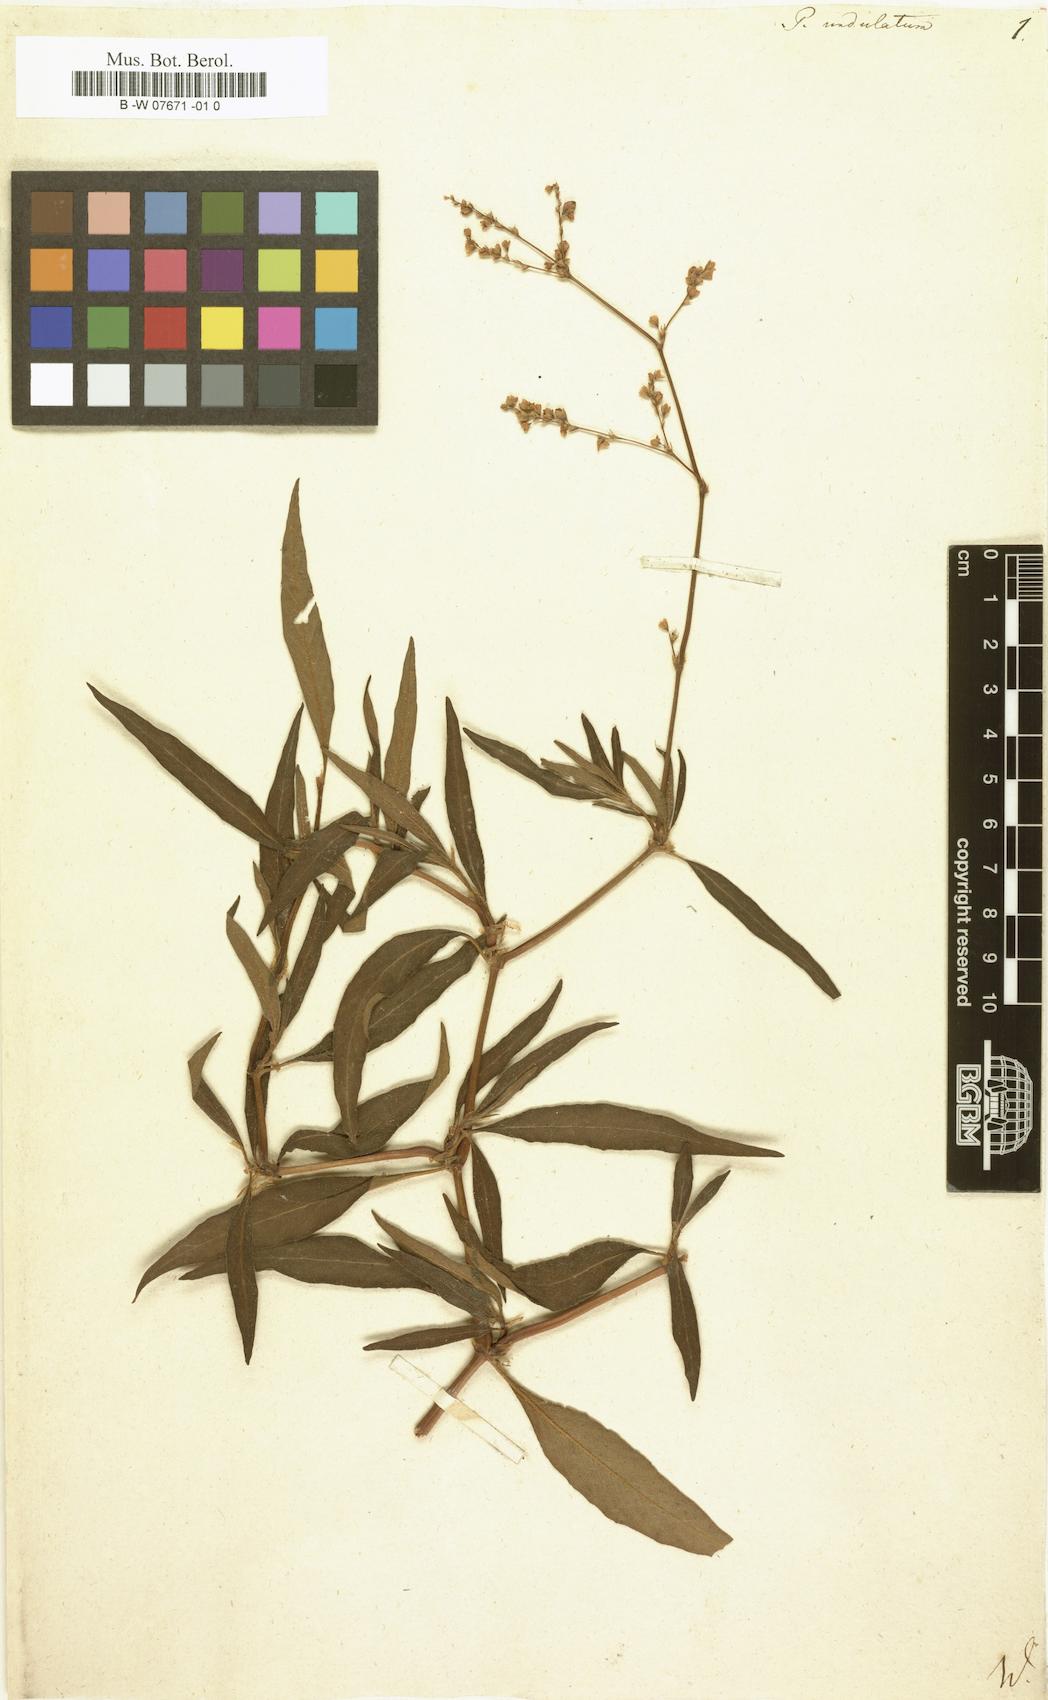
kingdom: Plantae
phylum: Tracheophyta
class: Magnoliopsida
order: Caryophyllales
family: Polygonaceae
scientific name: Polygonaceae
